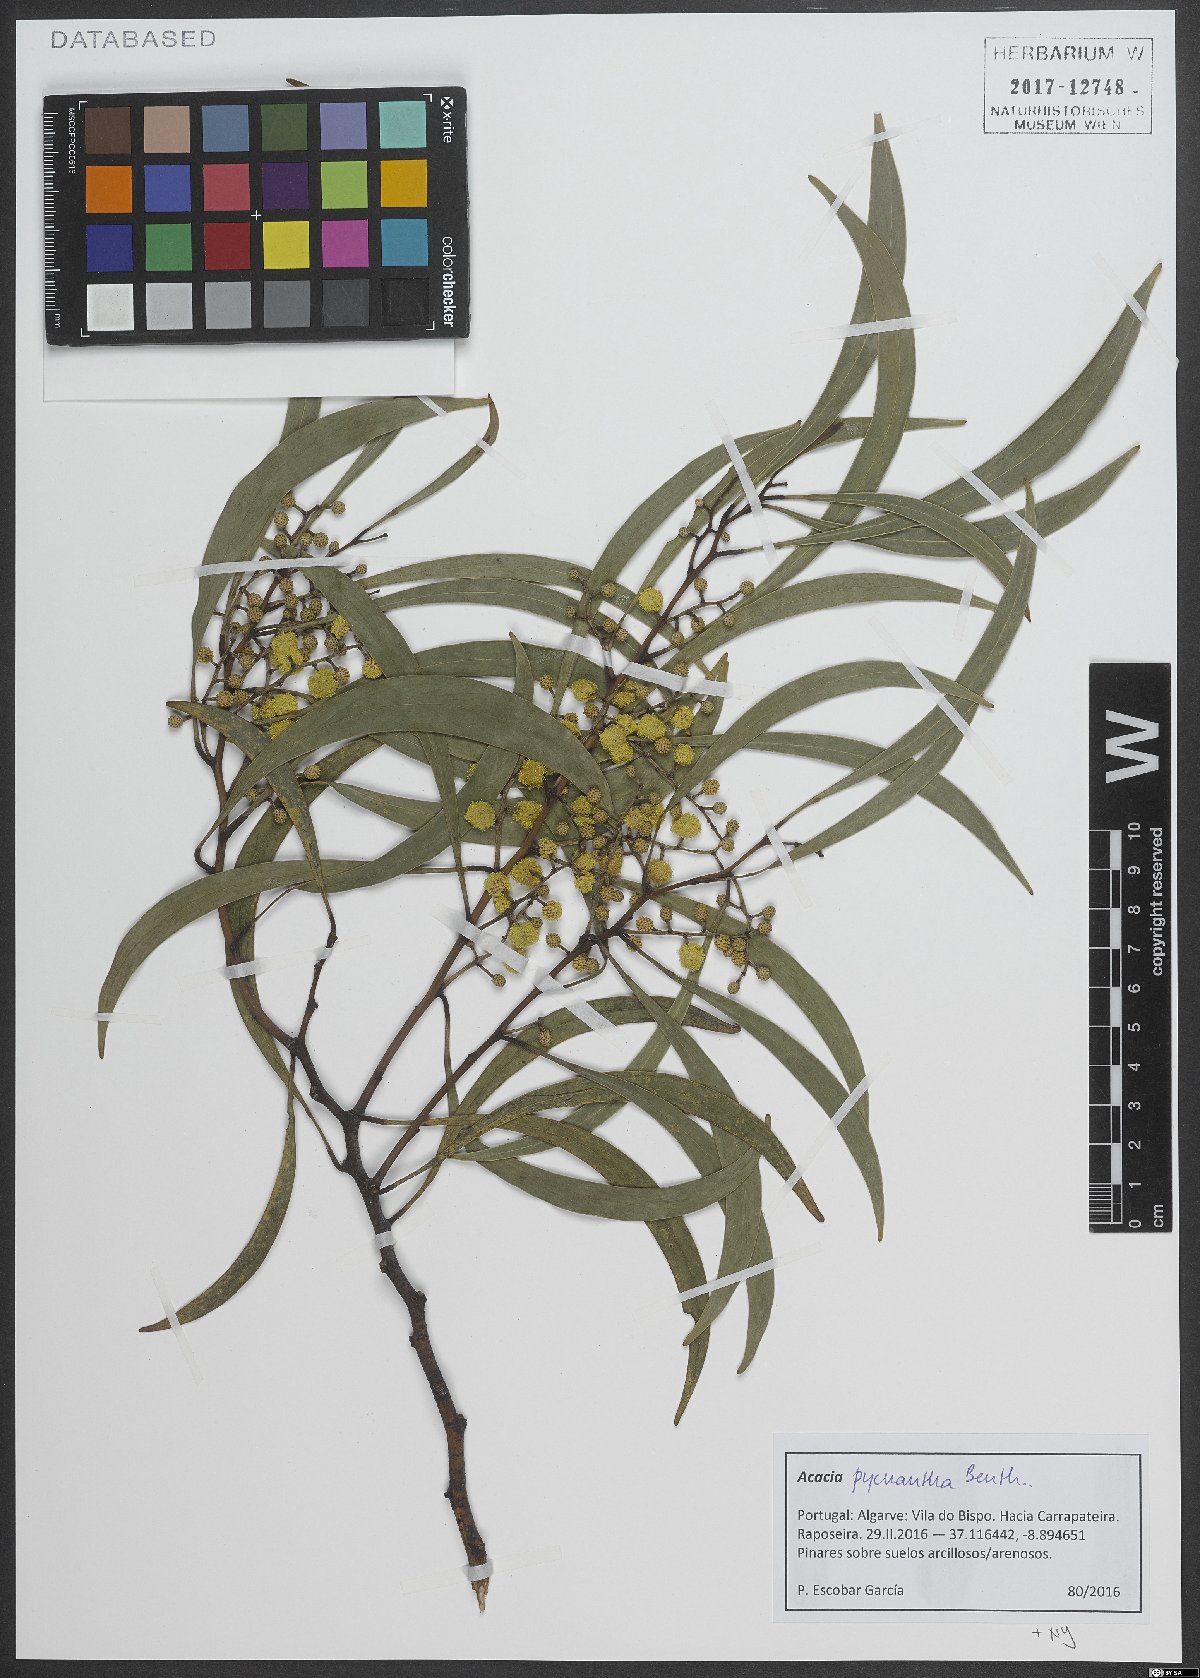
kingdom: Plantae
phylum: Tracheophyta
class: Magnoliopsida
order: Fabales
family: Fabaceae
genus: Acacia
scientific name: Acacia pycnantha
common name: Golden wattle
